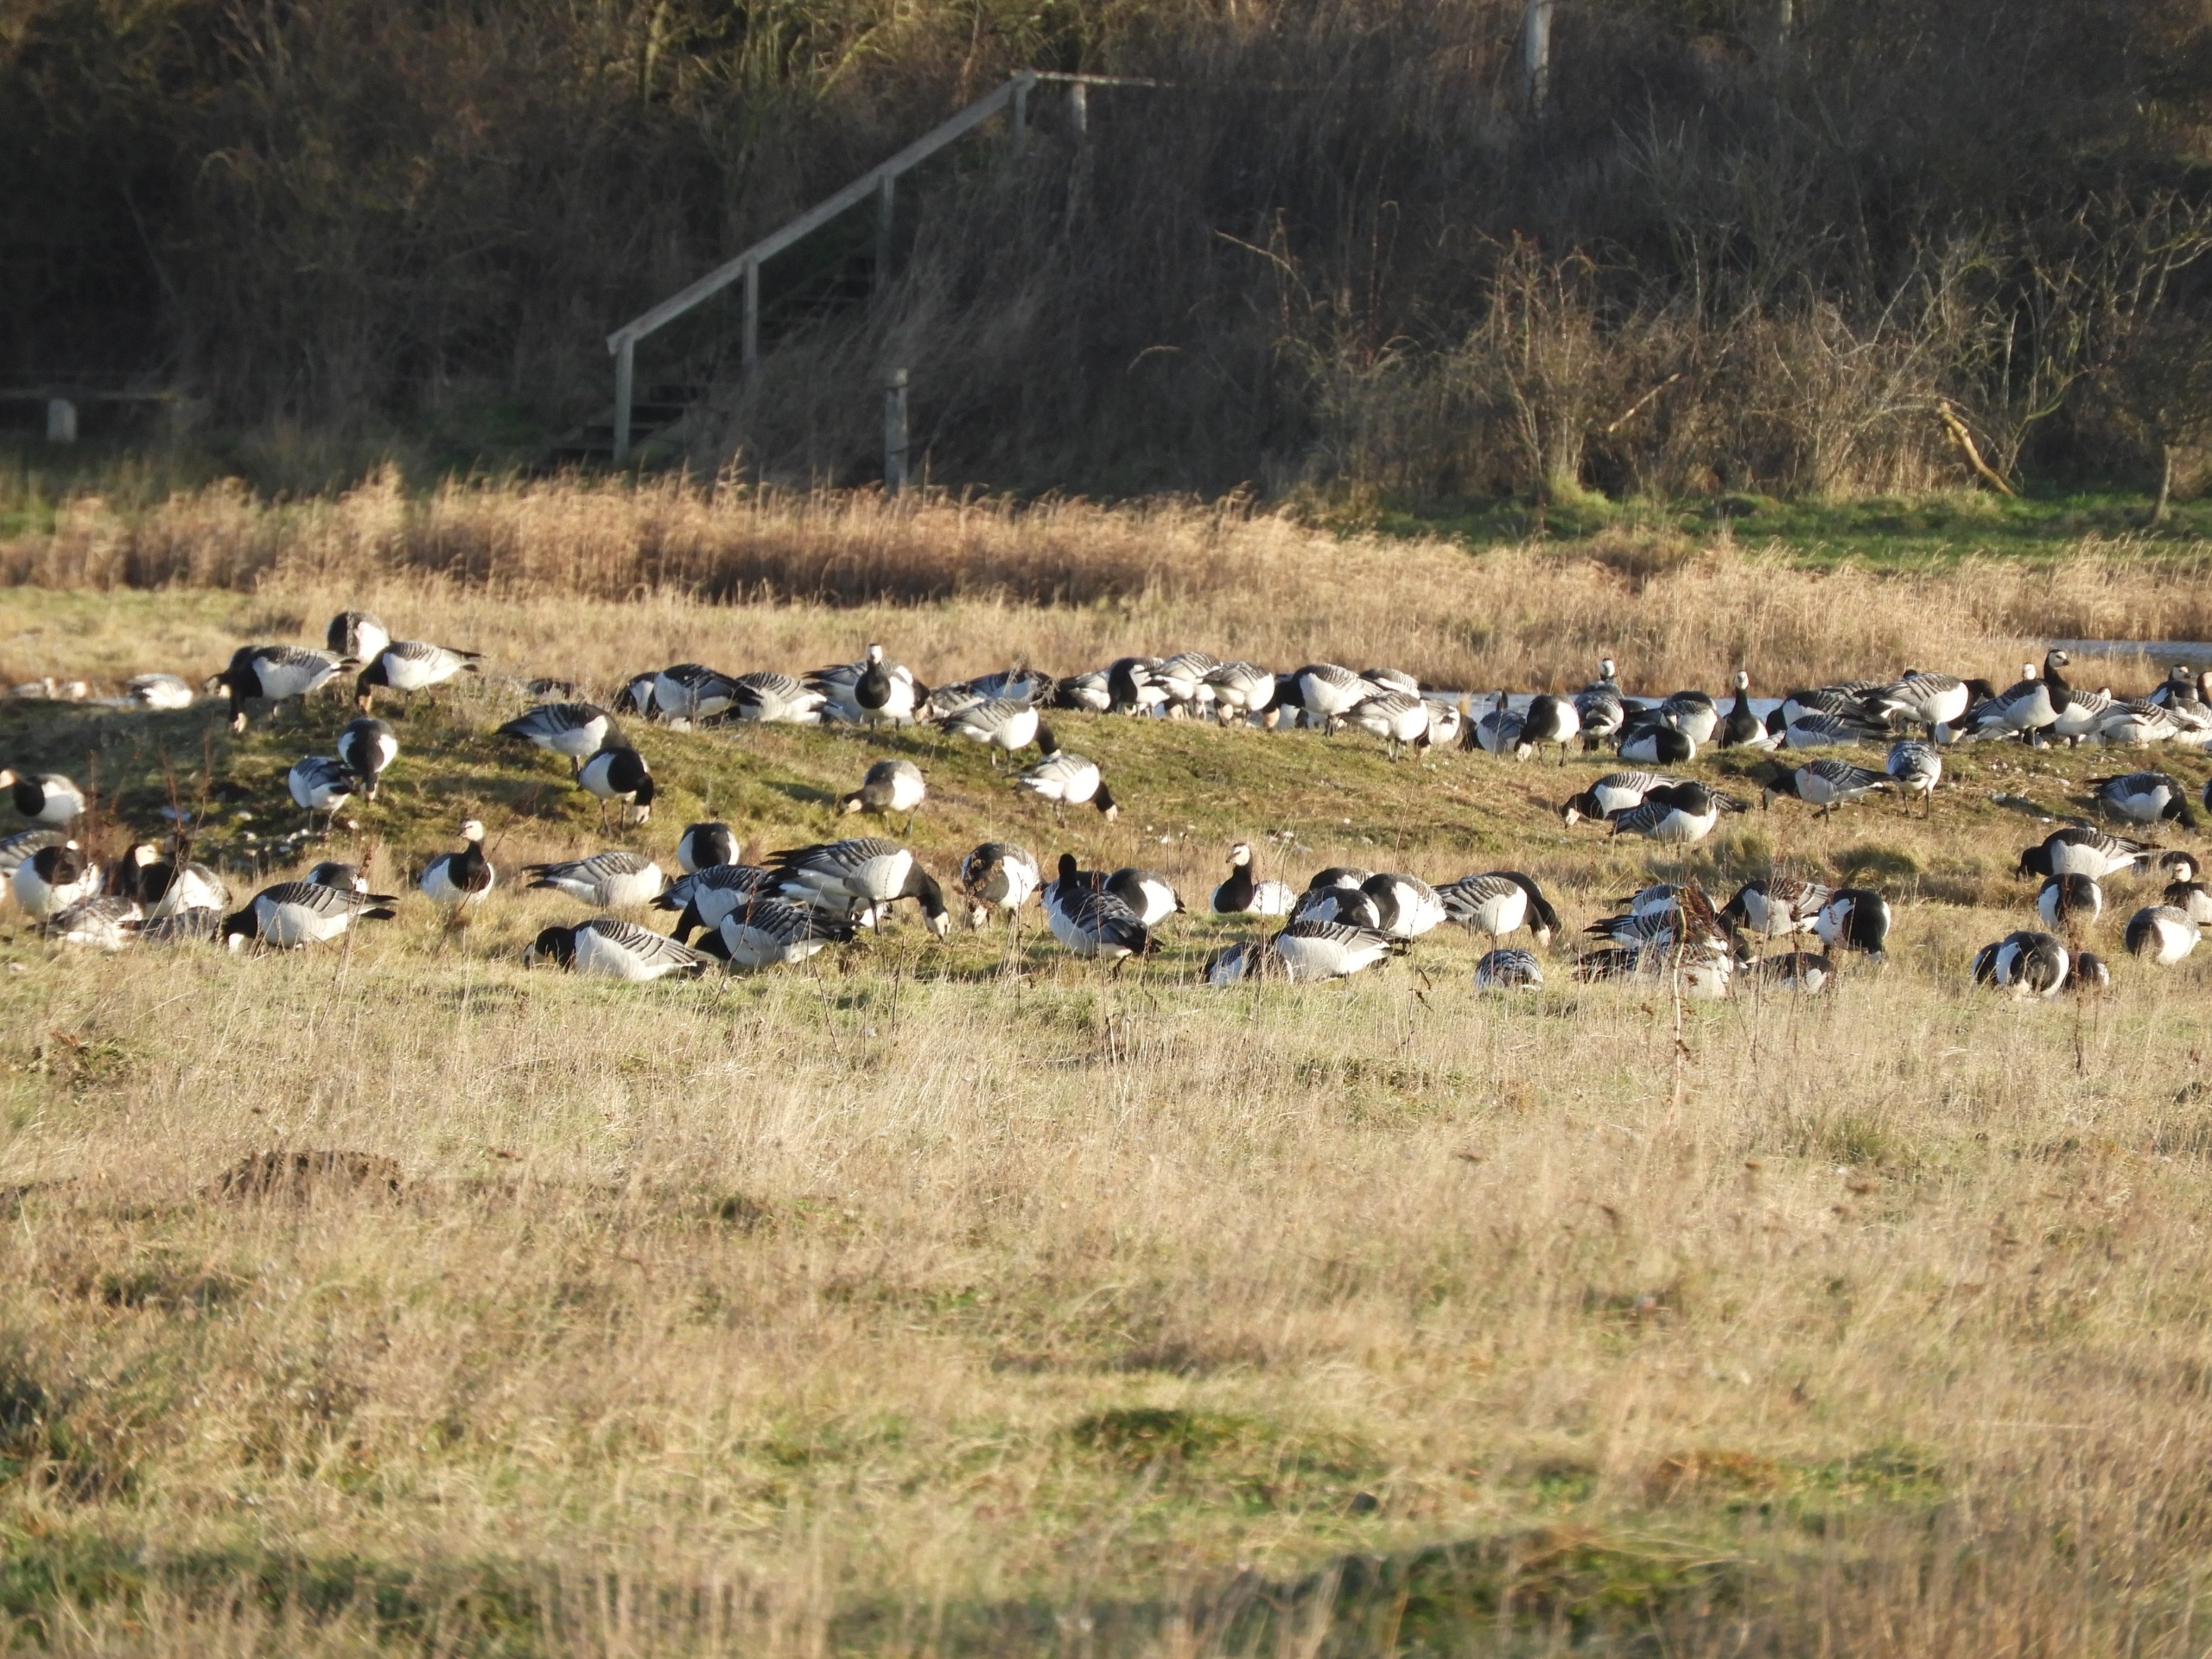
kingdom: Animalia
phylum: Chordata
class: Aves
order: Anseriformes
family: Anatidae
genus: Branta
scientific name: Branta leucopsis
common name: Bramgås
